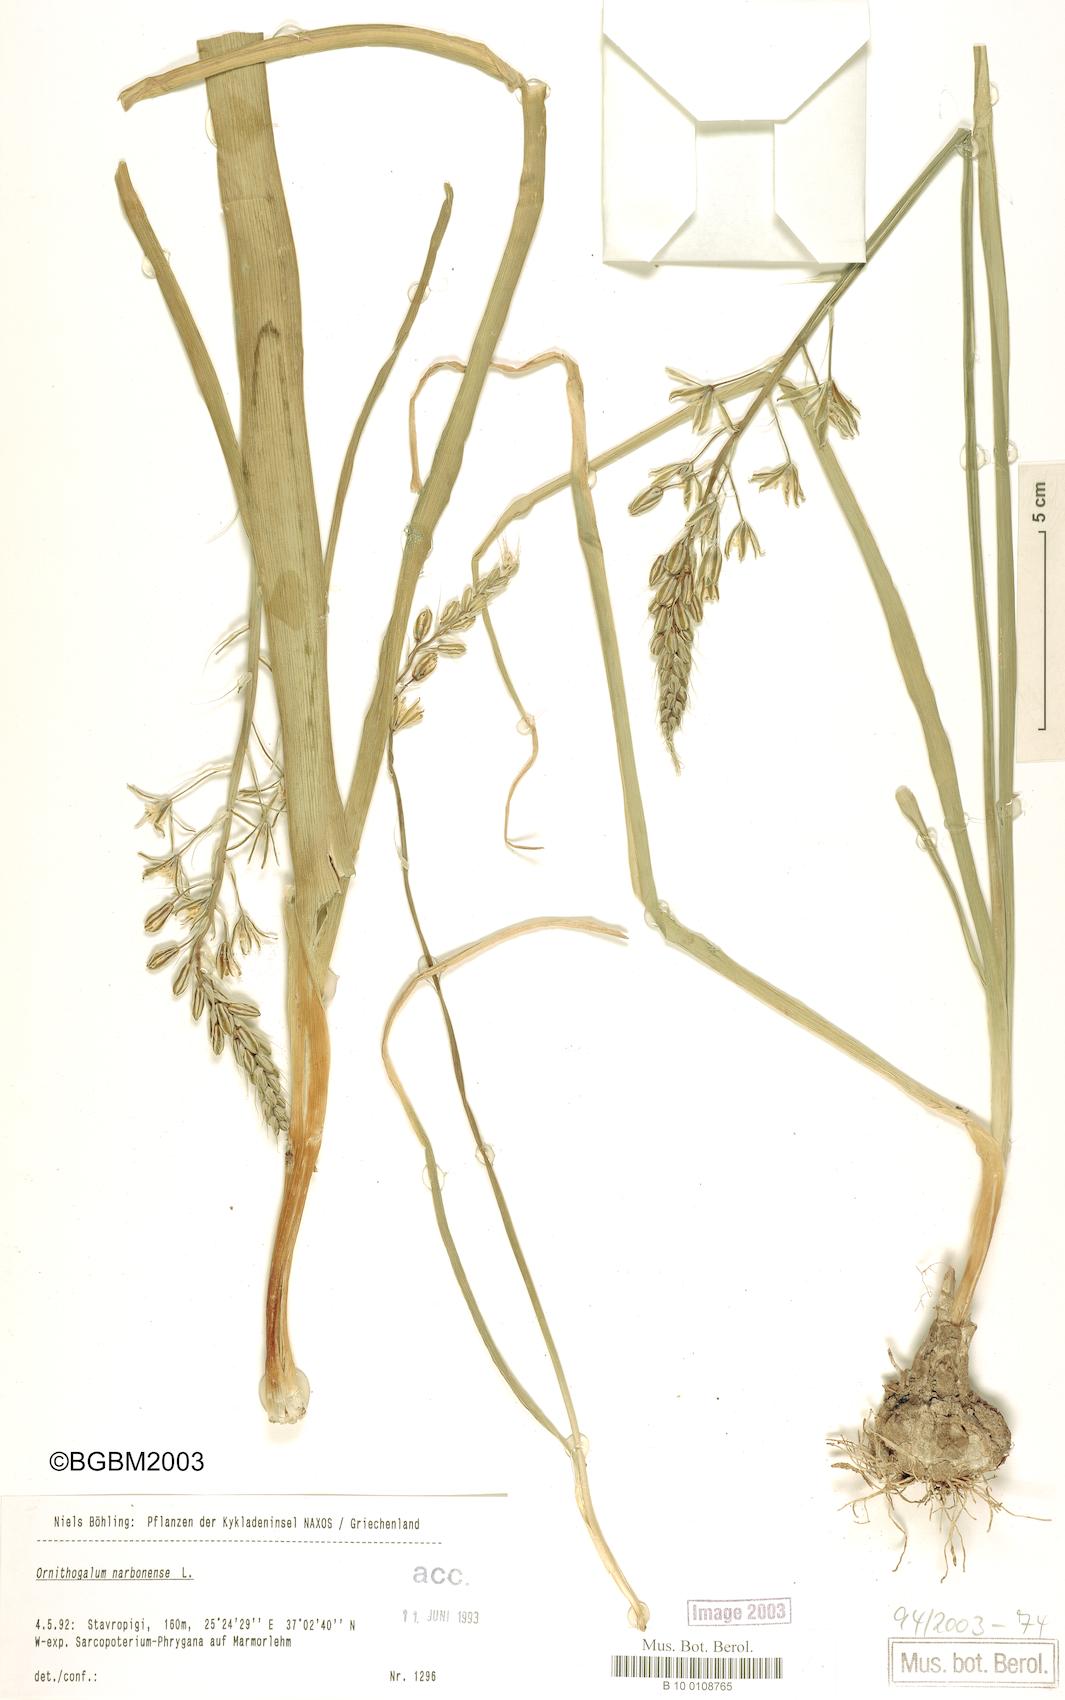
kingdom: Plantae
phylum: Tracheophyta
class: Liliopsida
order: Asparagales
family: Asparagaceae
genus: Ornithogalum
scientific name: Ornithogalum narbonense
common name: Bath-asparagus
